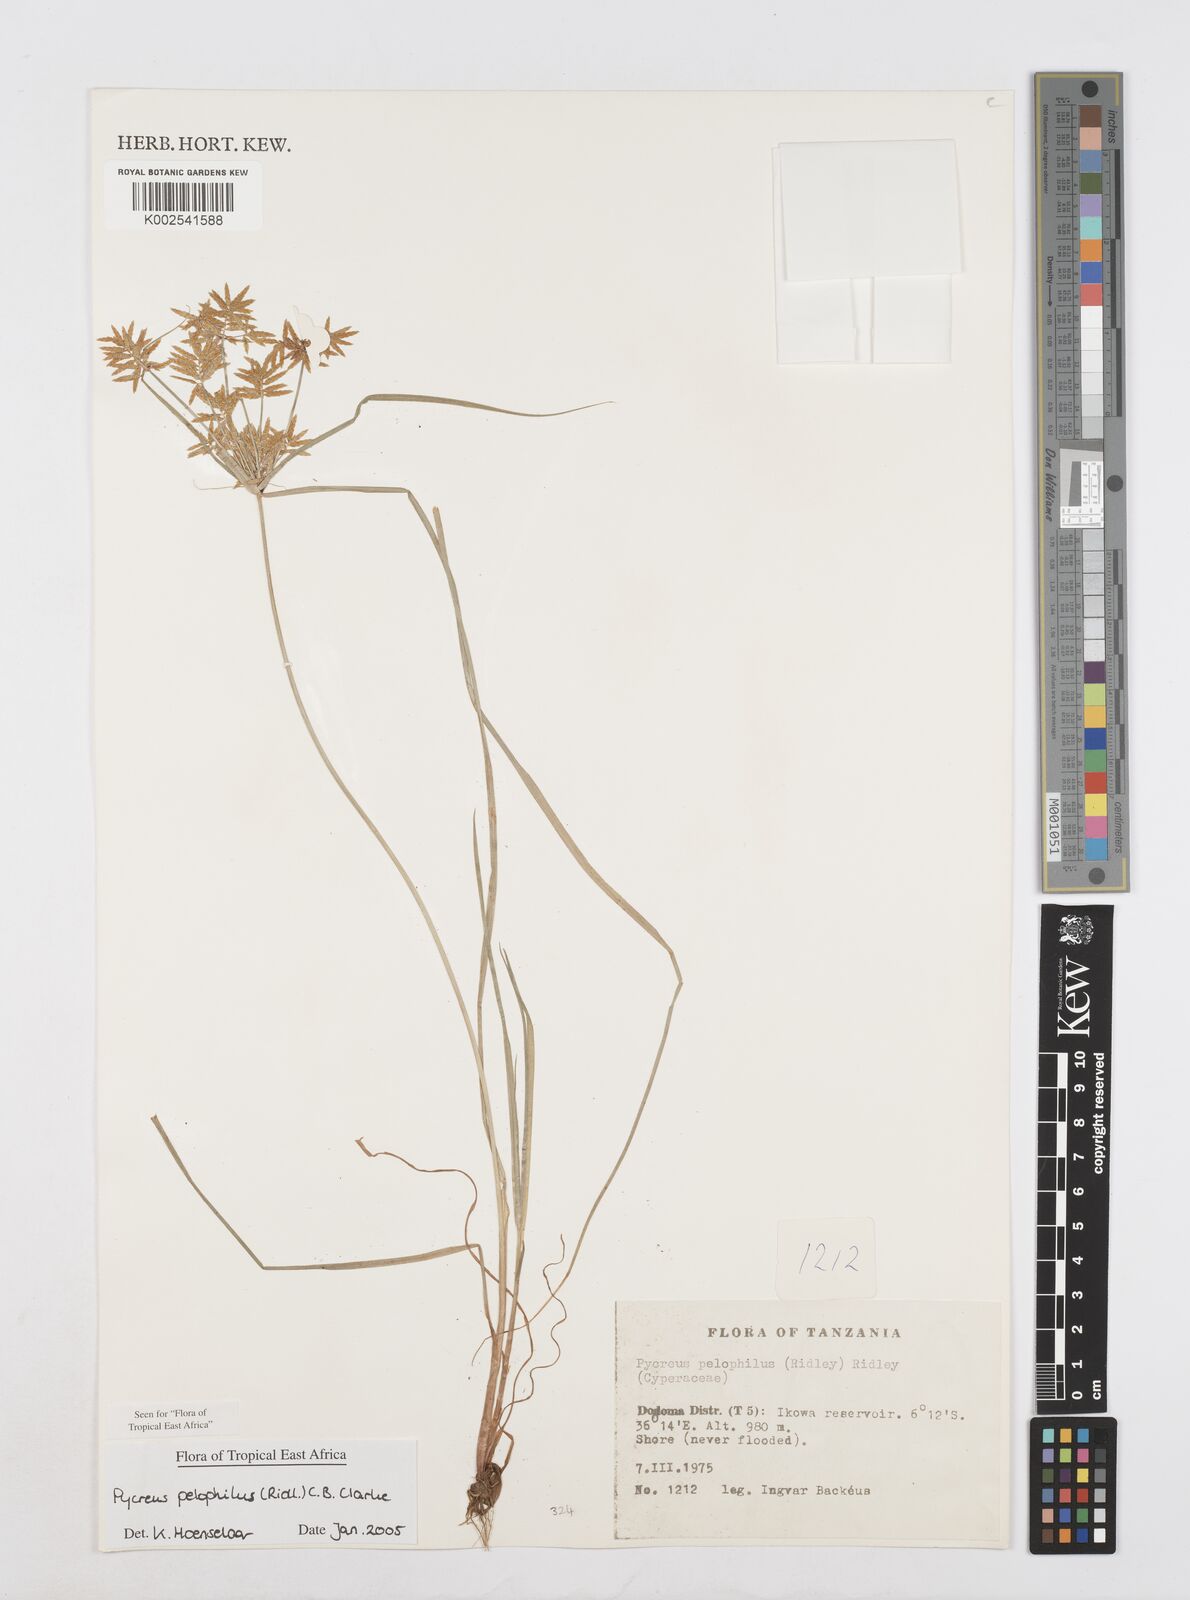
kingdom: Plantae
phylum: Tracheophyta
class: Liliopsida
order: Poales
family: Cyperaceae
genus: Cyperus
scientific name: Cyperus pelophilus
